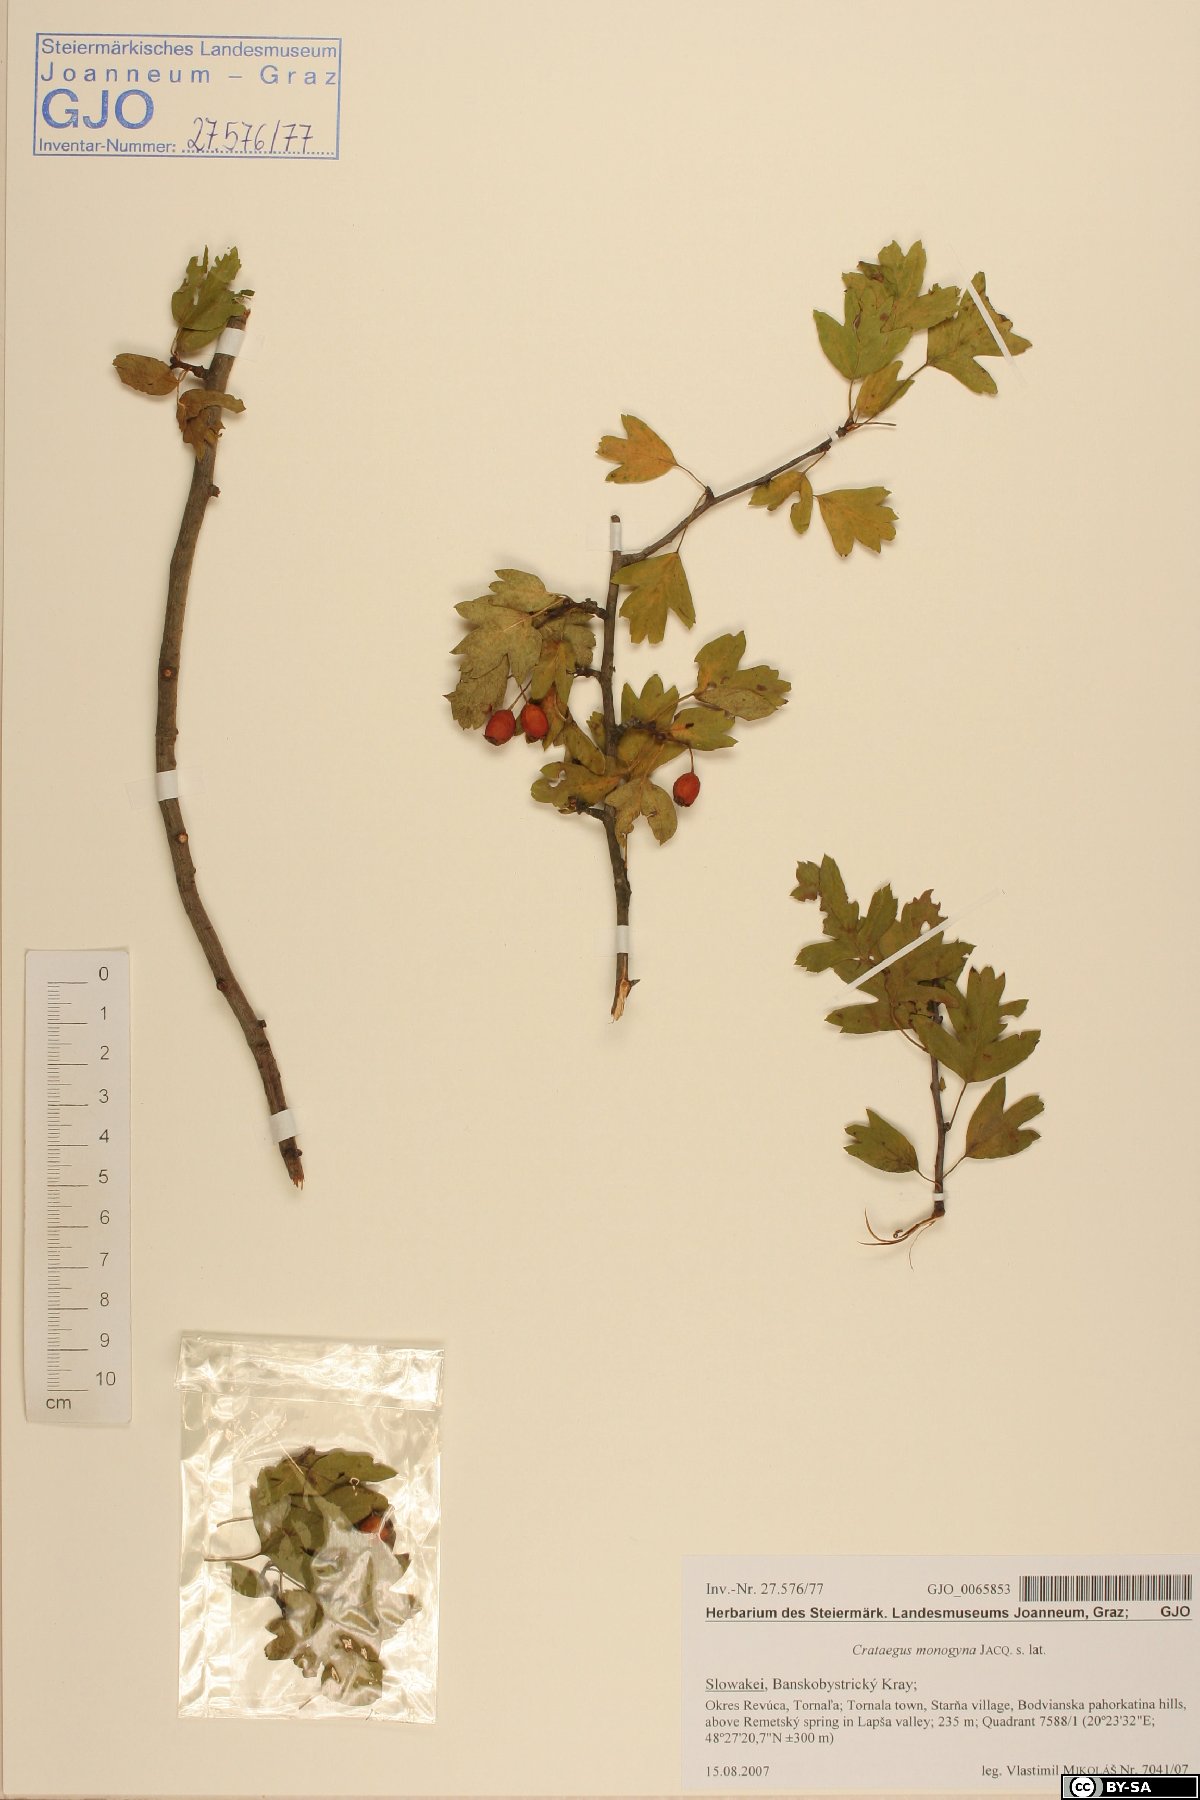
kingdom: Plantae
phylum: Tracheophyta
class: Magnoliopsida
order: Rosales
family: Rosaceae
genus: Crataegus
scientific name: Crataegus monogyna
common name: Hawthorn
